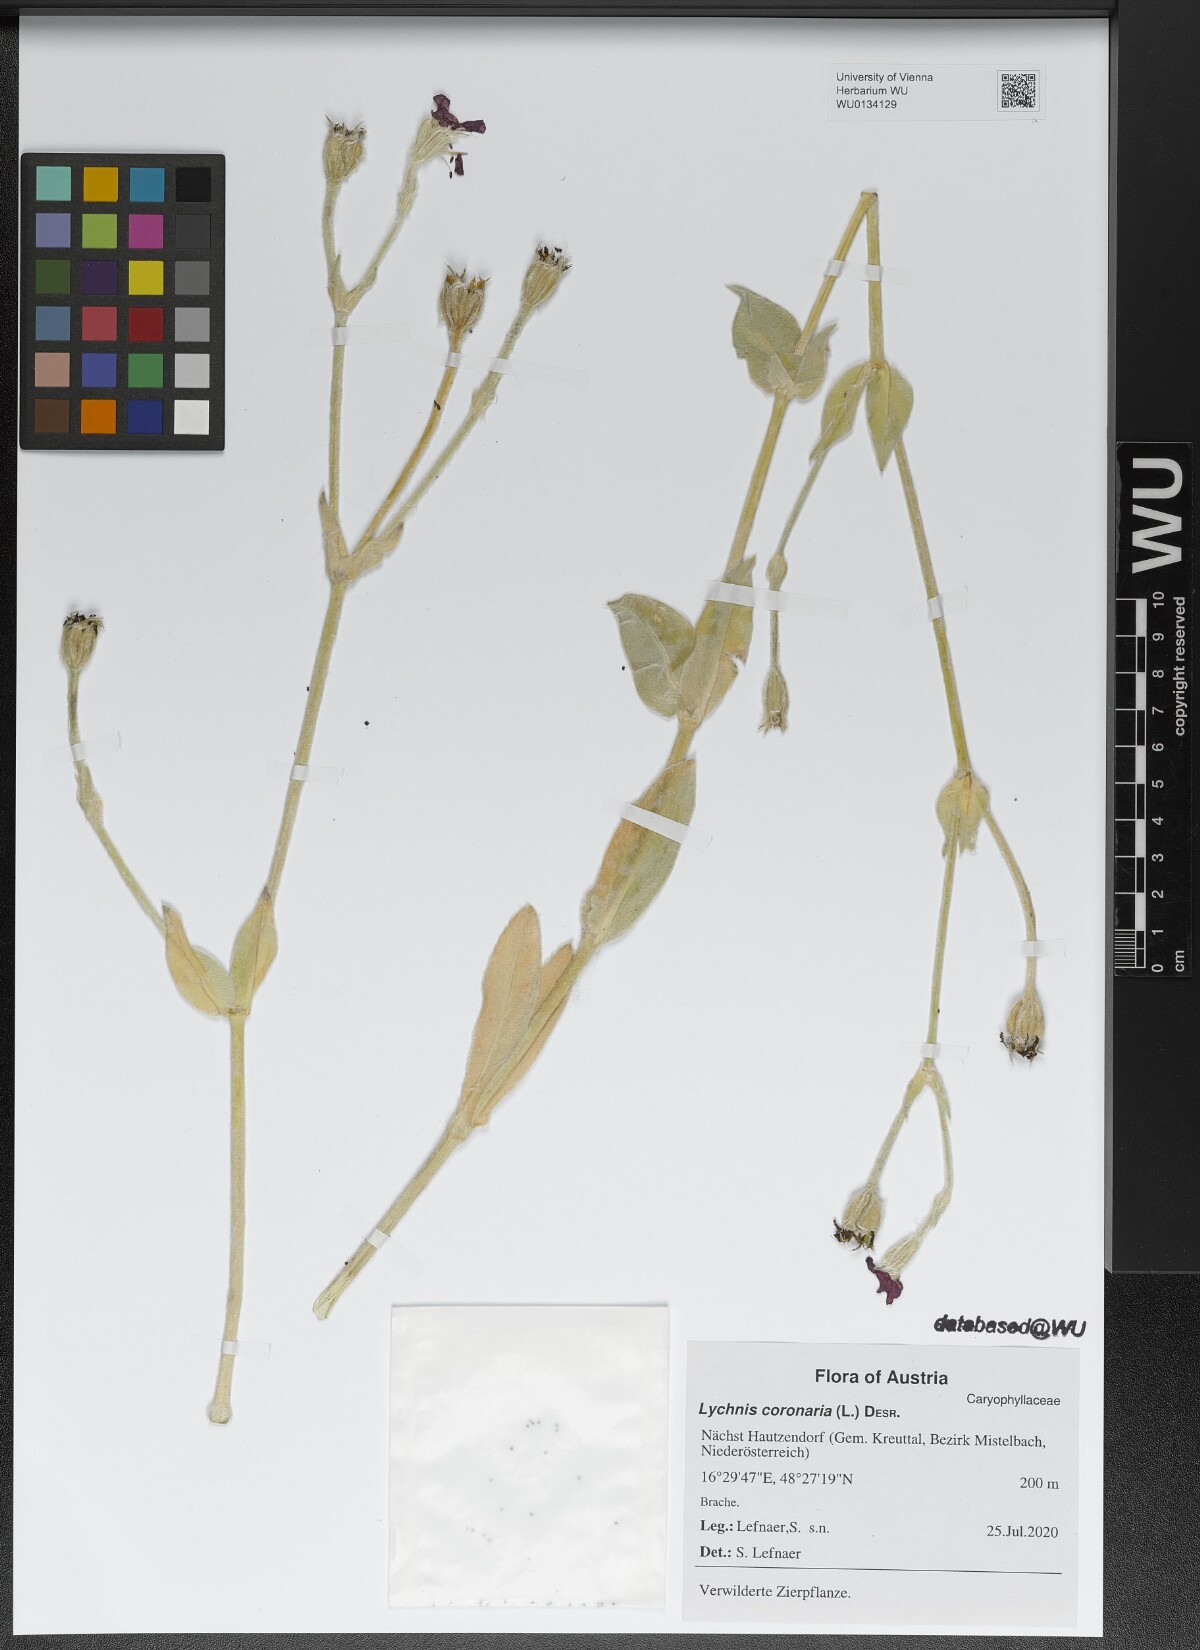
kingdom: Plantae
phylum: Tracheophyta
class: Magnoliopsida
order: Caryophyllales
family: Caryophyllaceae
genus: Silene
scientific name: Silene coronaria
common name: Rose campion
